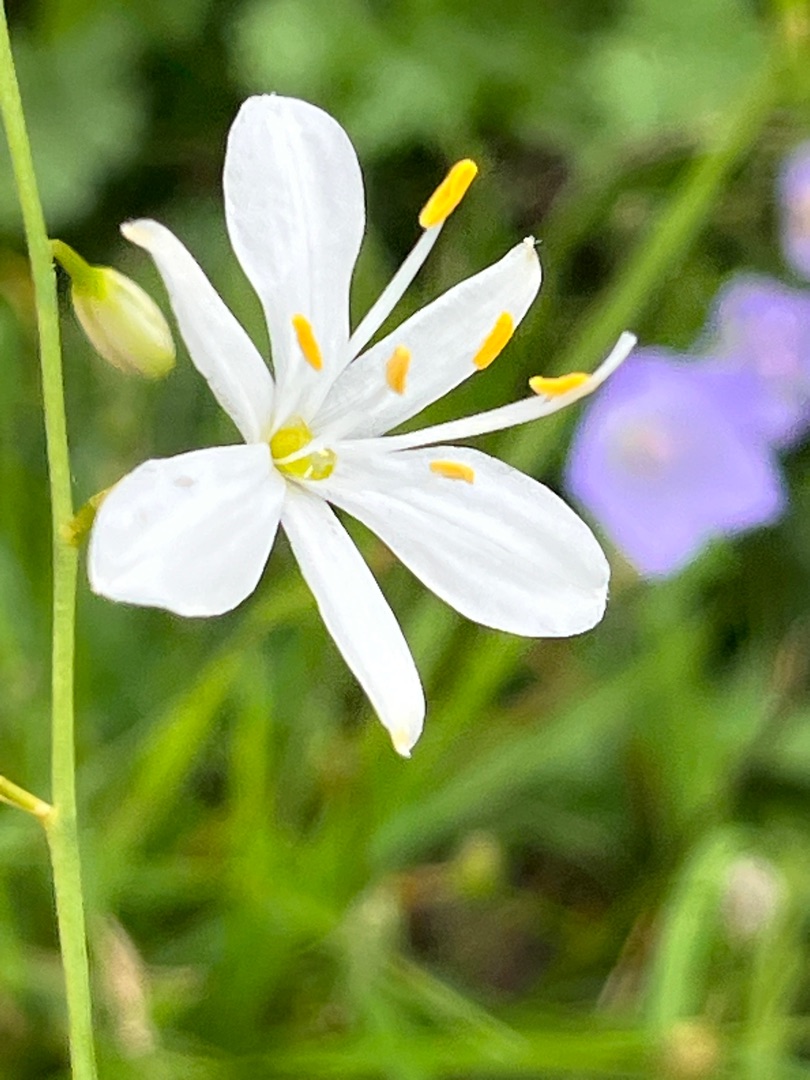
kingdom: Plantae
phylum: Tracheophyta
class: Liliopsida
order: Asparagales
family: Asparagaceae
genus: Anthericum
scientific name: Anthericum ramosum
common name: Grenet edderkopurt
